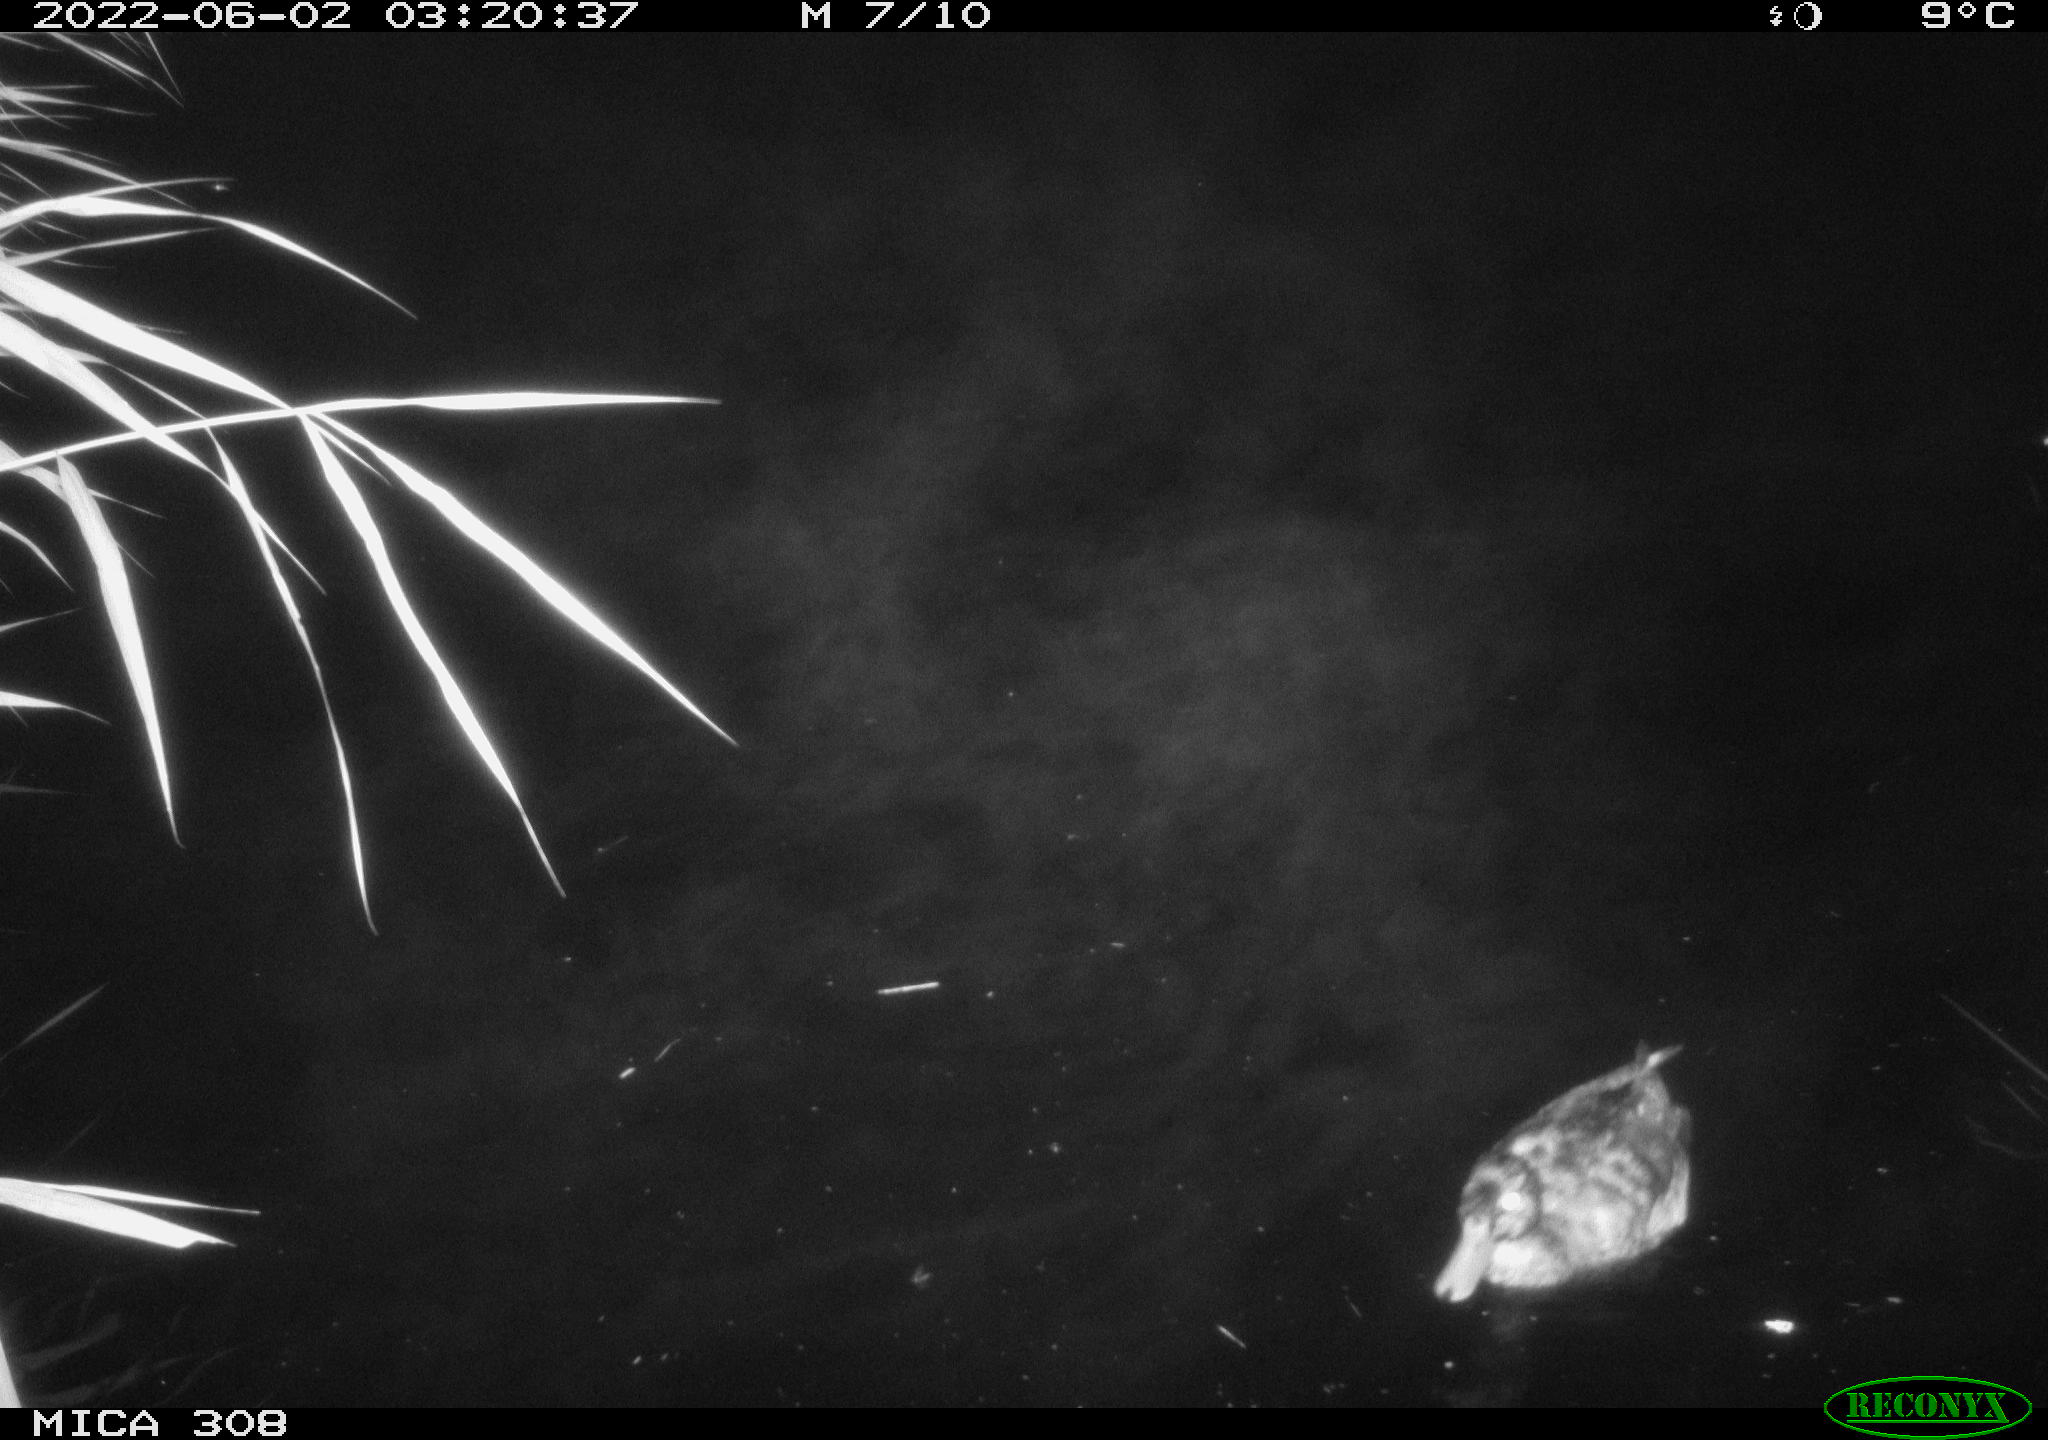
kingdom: Animalia
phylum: Chordata
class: Aves
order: Anseriformes
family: Anatidae
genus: Mareca
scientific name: Mareca strepera
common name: Gadwall
